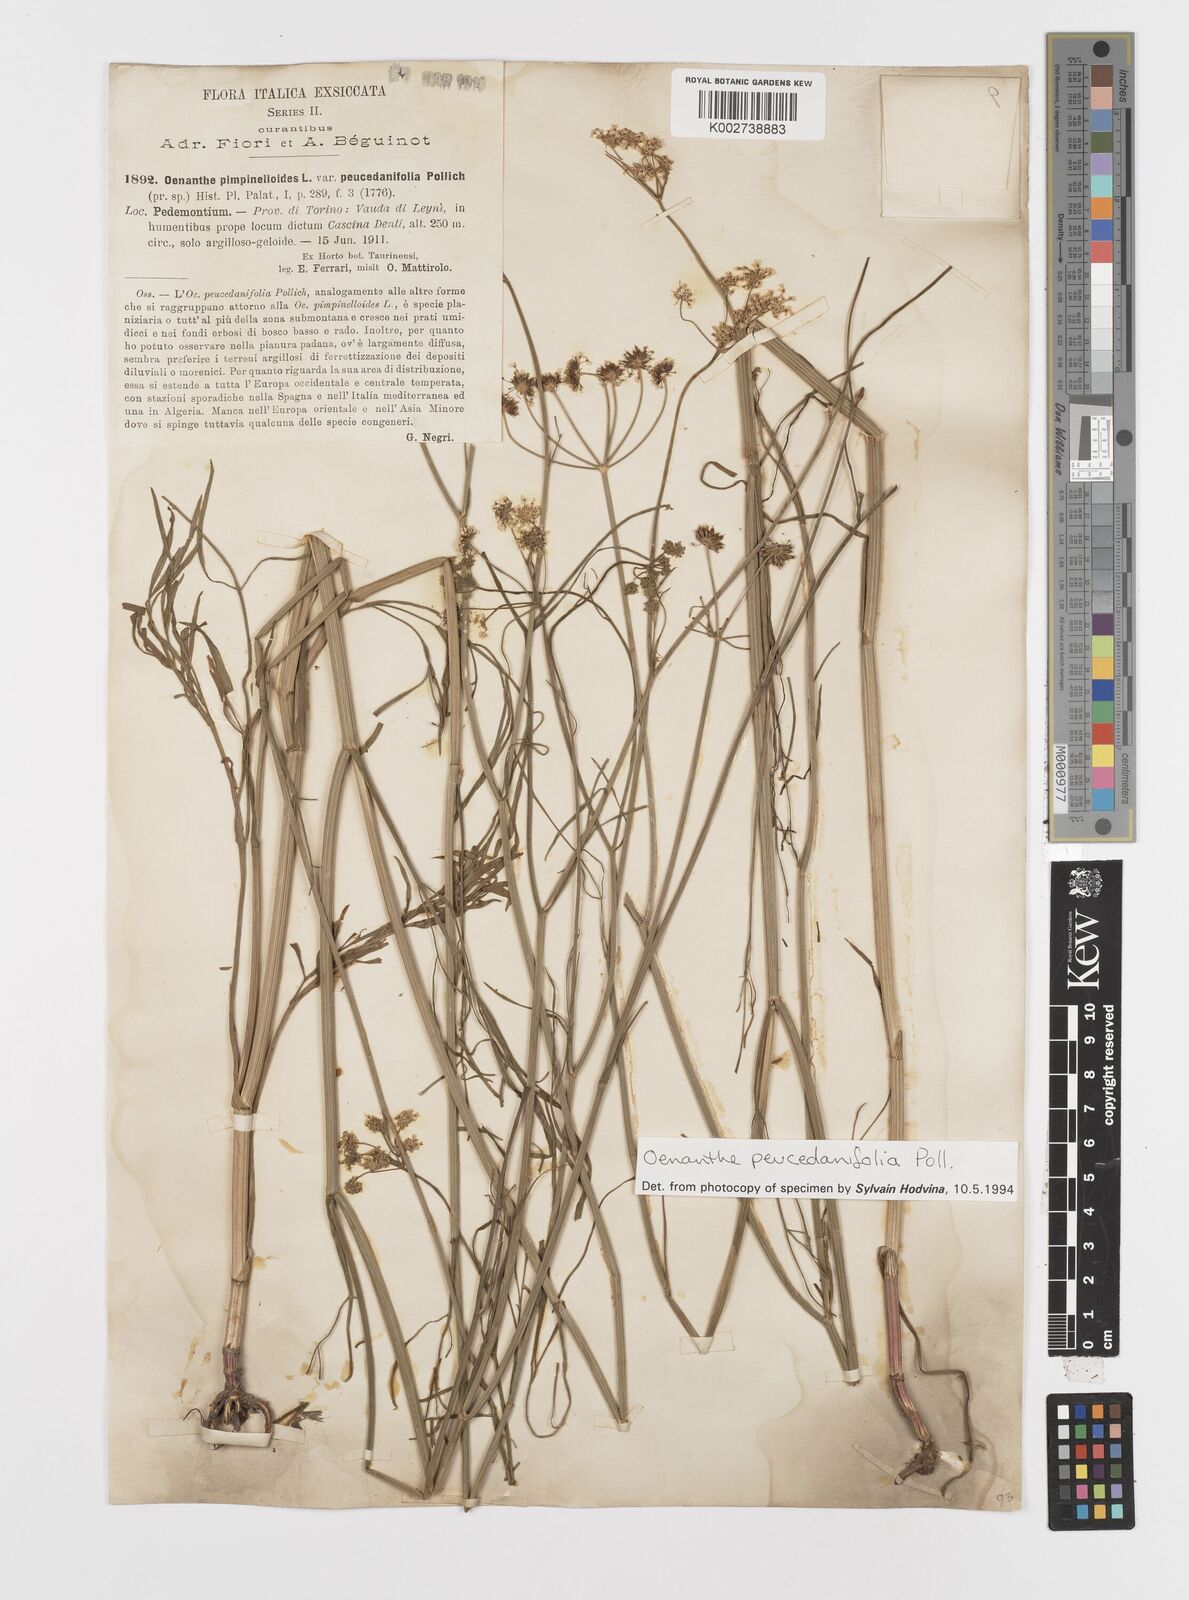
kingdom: Plantae
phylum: Tracheophyta
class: Magnoliopsida
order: Apiales
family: Apiaceae
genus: Oenanthe
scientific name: Oenanthe peucedanifolia
